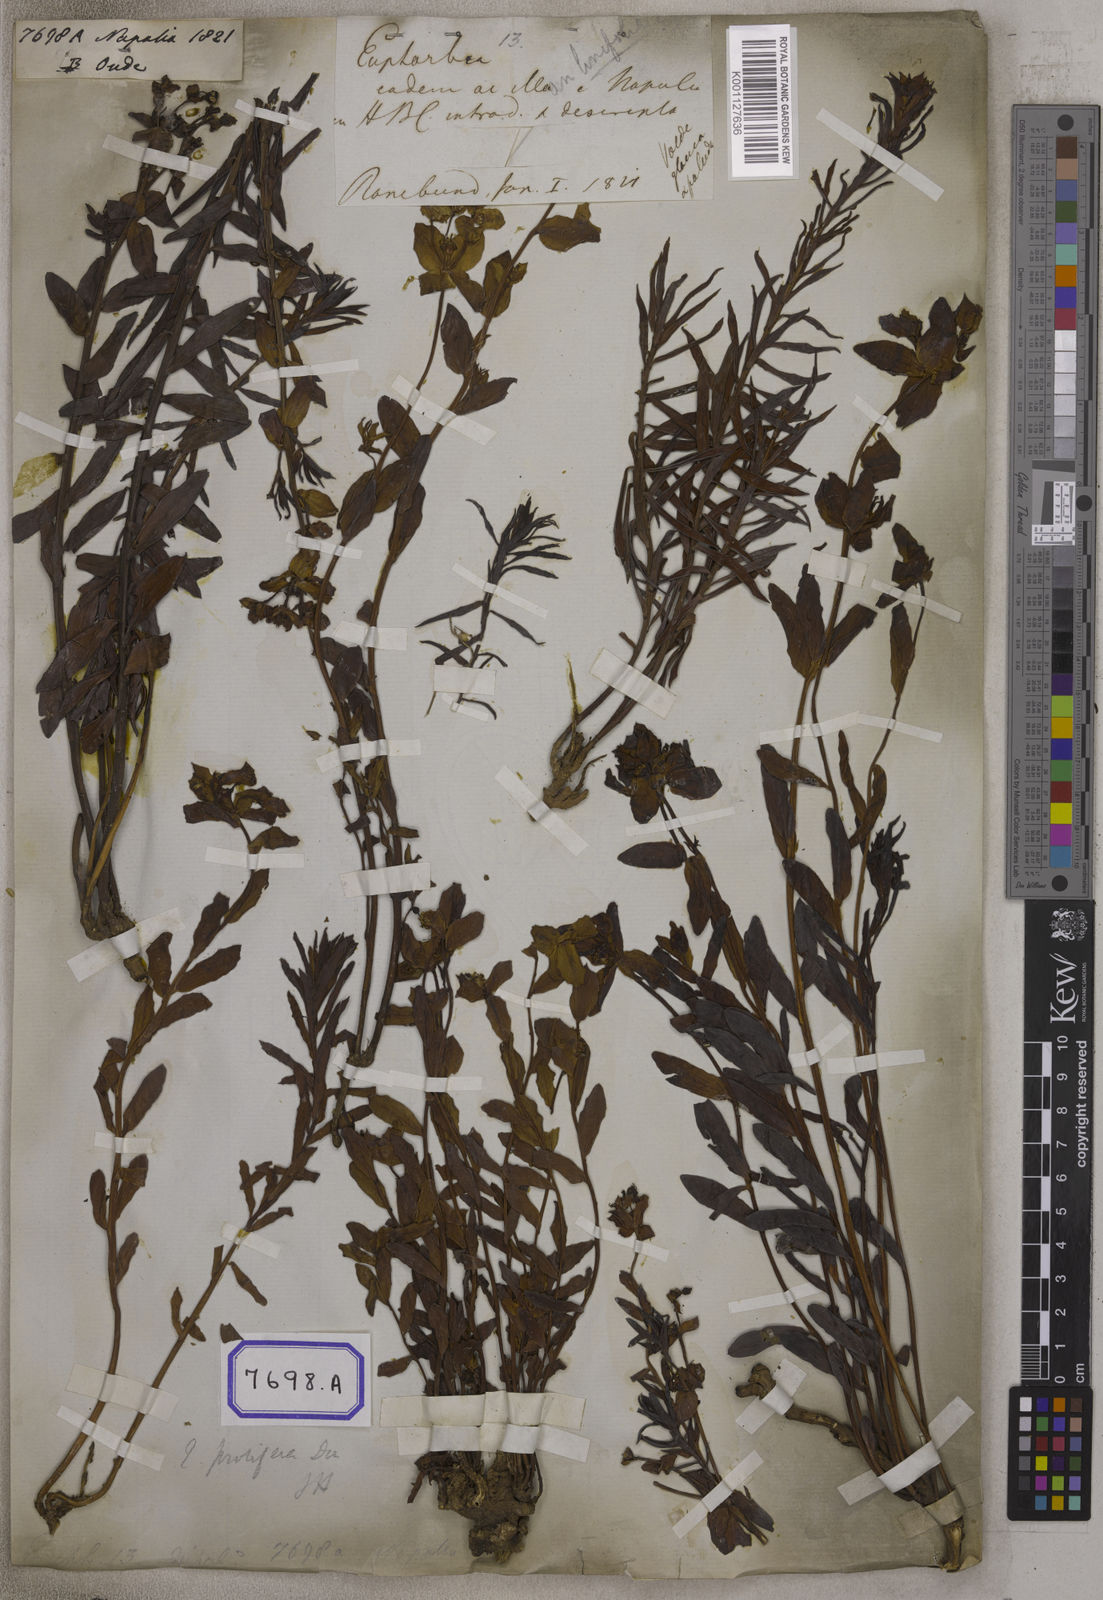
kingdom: Plantae
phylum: Tracheophyta
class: Magnoliopsida
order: Malpighiales
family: Euphorbiaceae
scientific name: Euphorbiaceae
